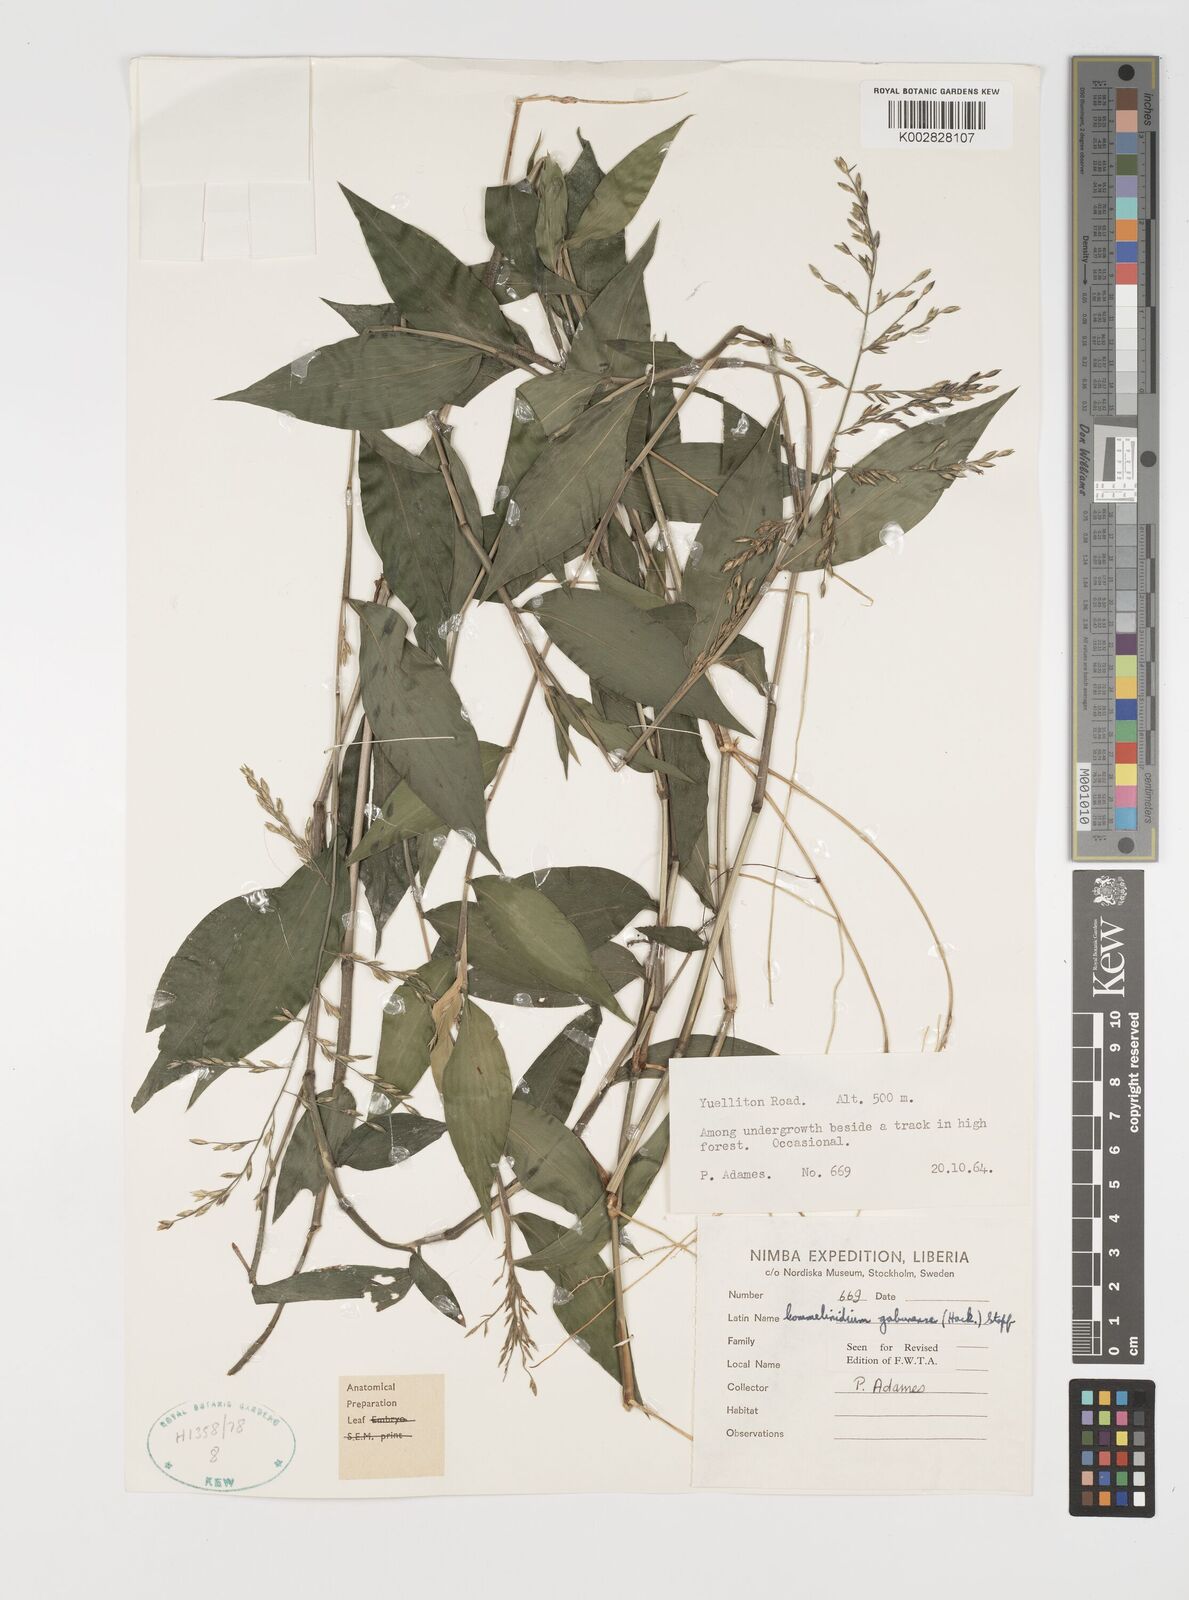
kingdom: Plantae
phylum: Tracheophyta
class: Liliopsida
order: Poales
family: Poaceae
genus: Acroceras
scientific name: Acroceras gabunense
